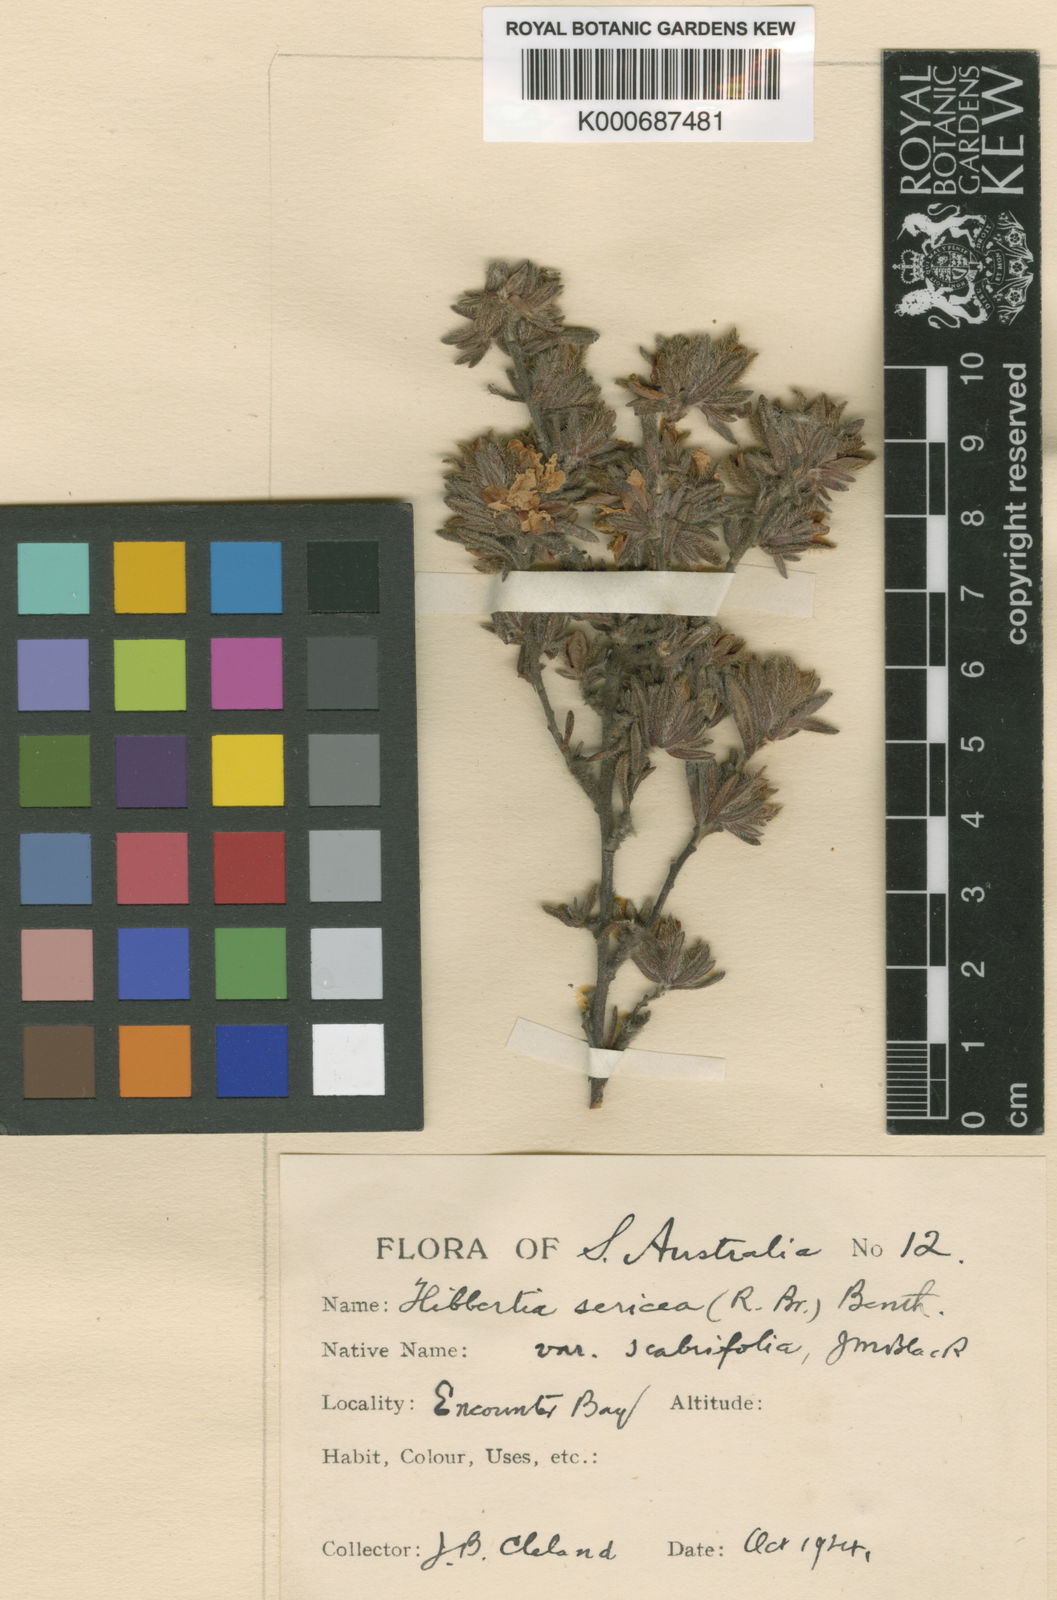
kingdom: Plantae
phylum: Tracheophyta
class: Magnoliopsida
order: Dilleniales
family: Dilleniaceae
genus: Hibbertia
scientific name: Hibbertia sericea
